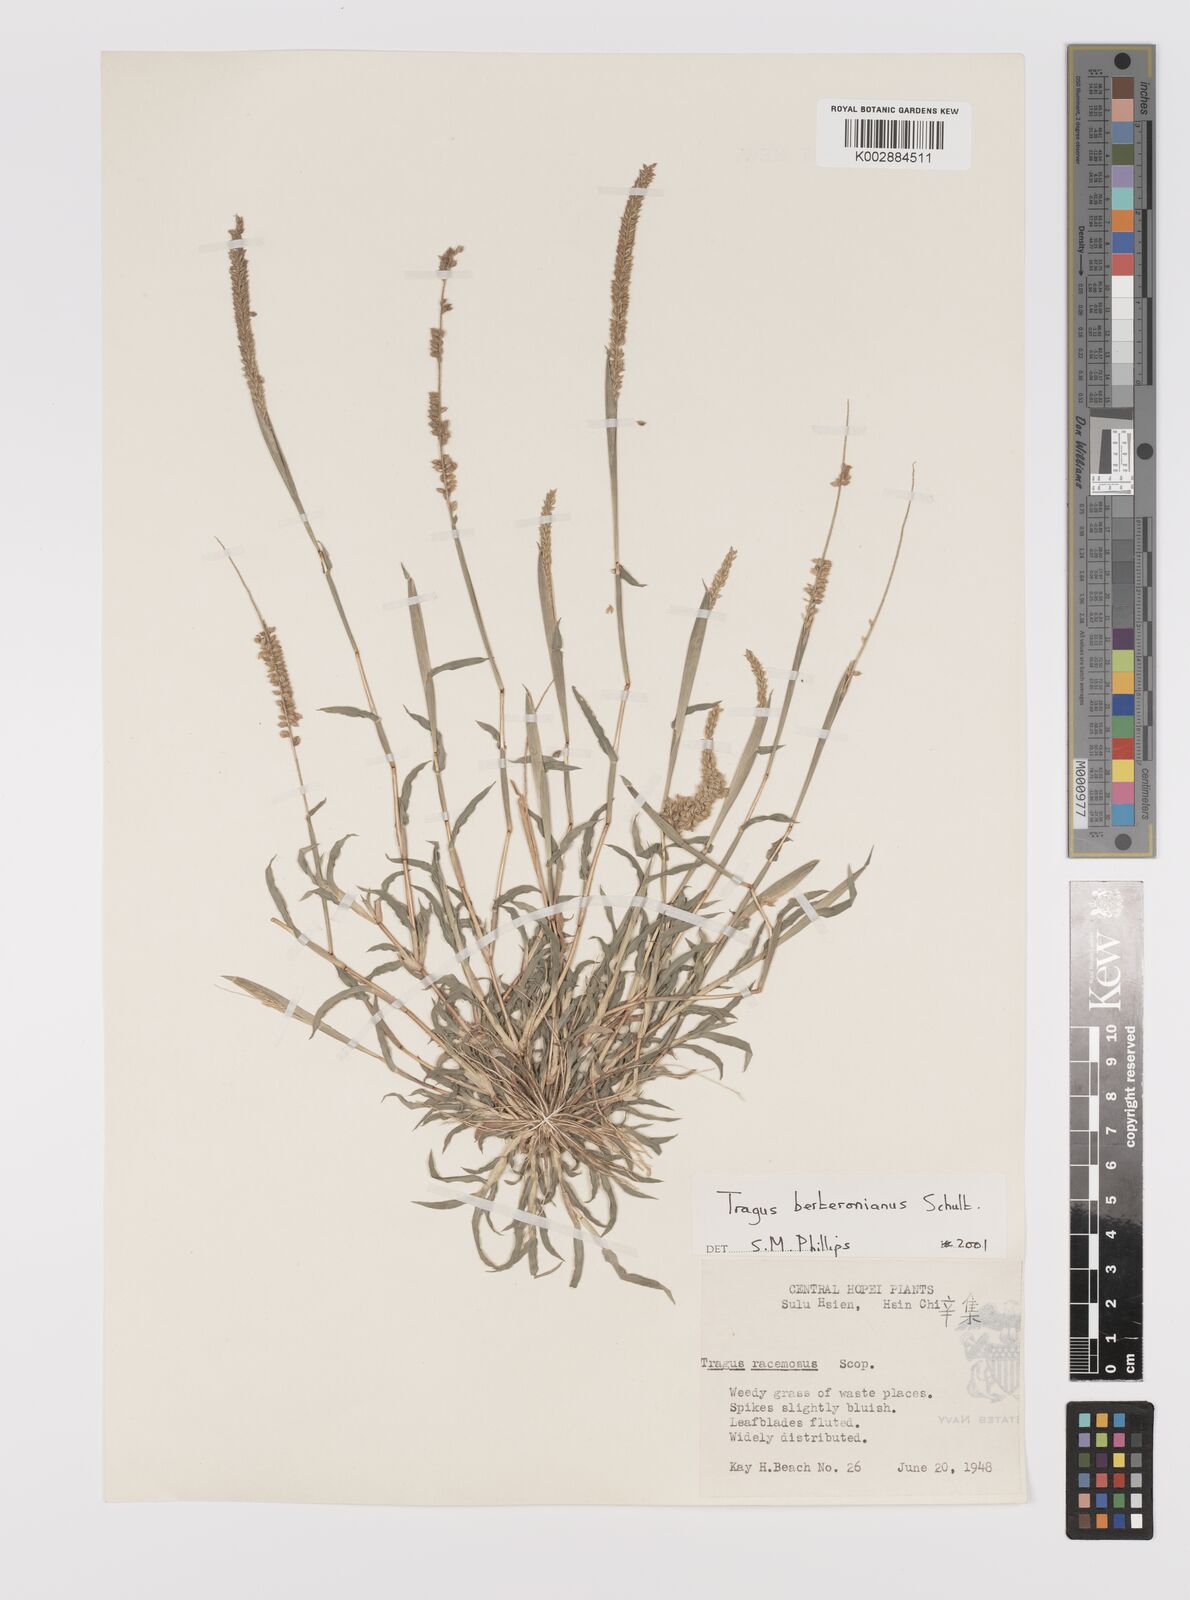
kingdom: Plantae
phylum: Tracheophyta
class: Liliopsida
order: Poales
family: Poaceae
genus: Tragus
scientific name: Tragus berteronianus
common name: African bur-grass
